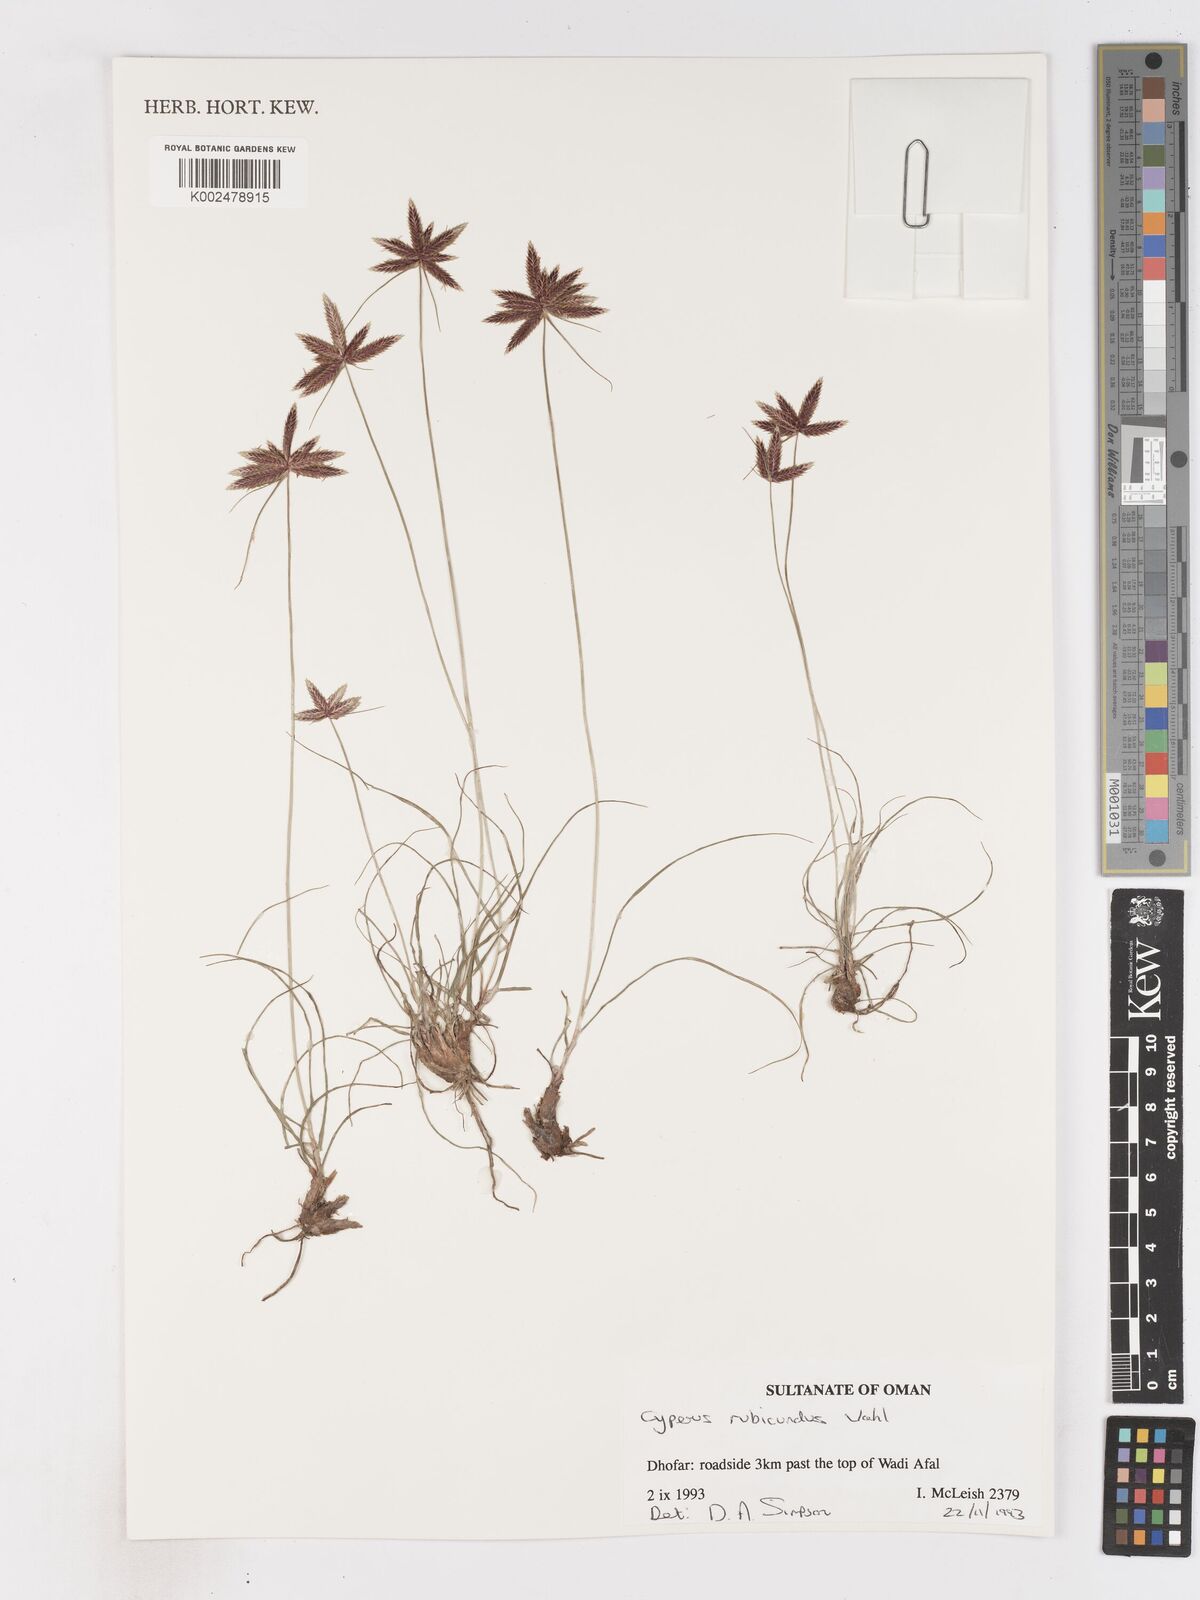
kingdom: Plantae
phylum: Tracheophyta
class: Liliopsida
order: Poales
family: Cyperaceae
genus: Cyperus
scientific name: Cyperus rubicundus
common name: Coco-grass
